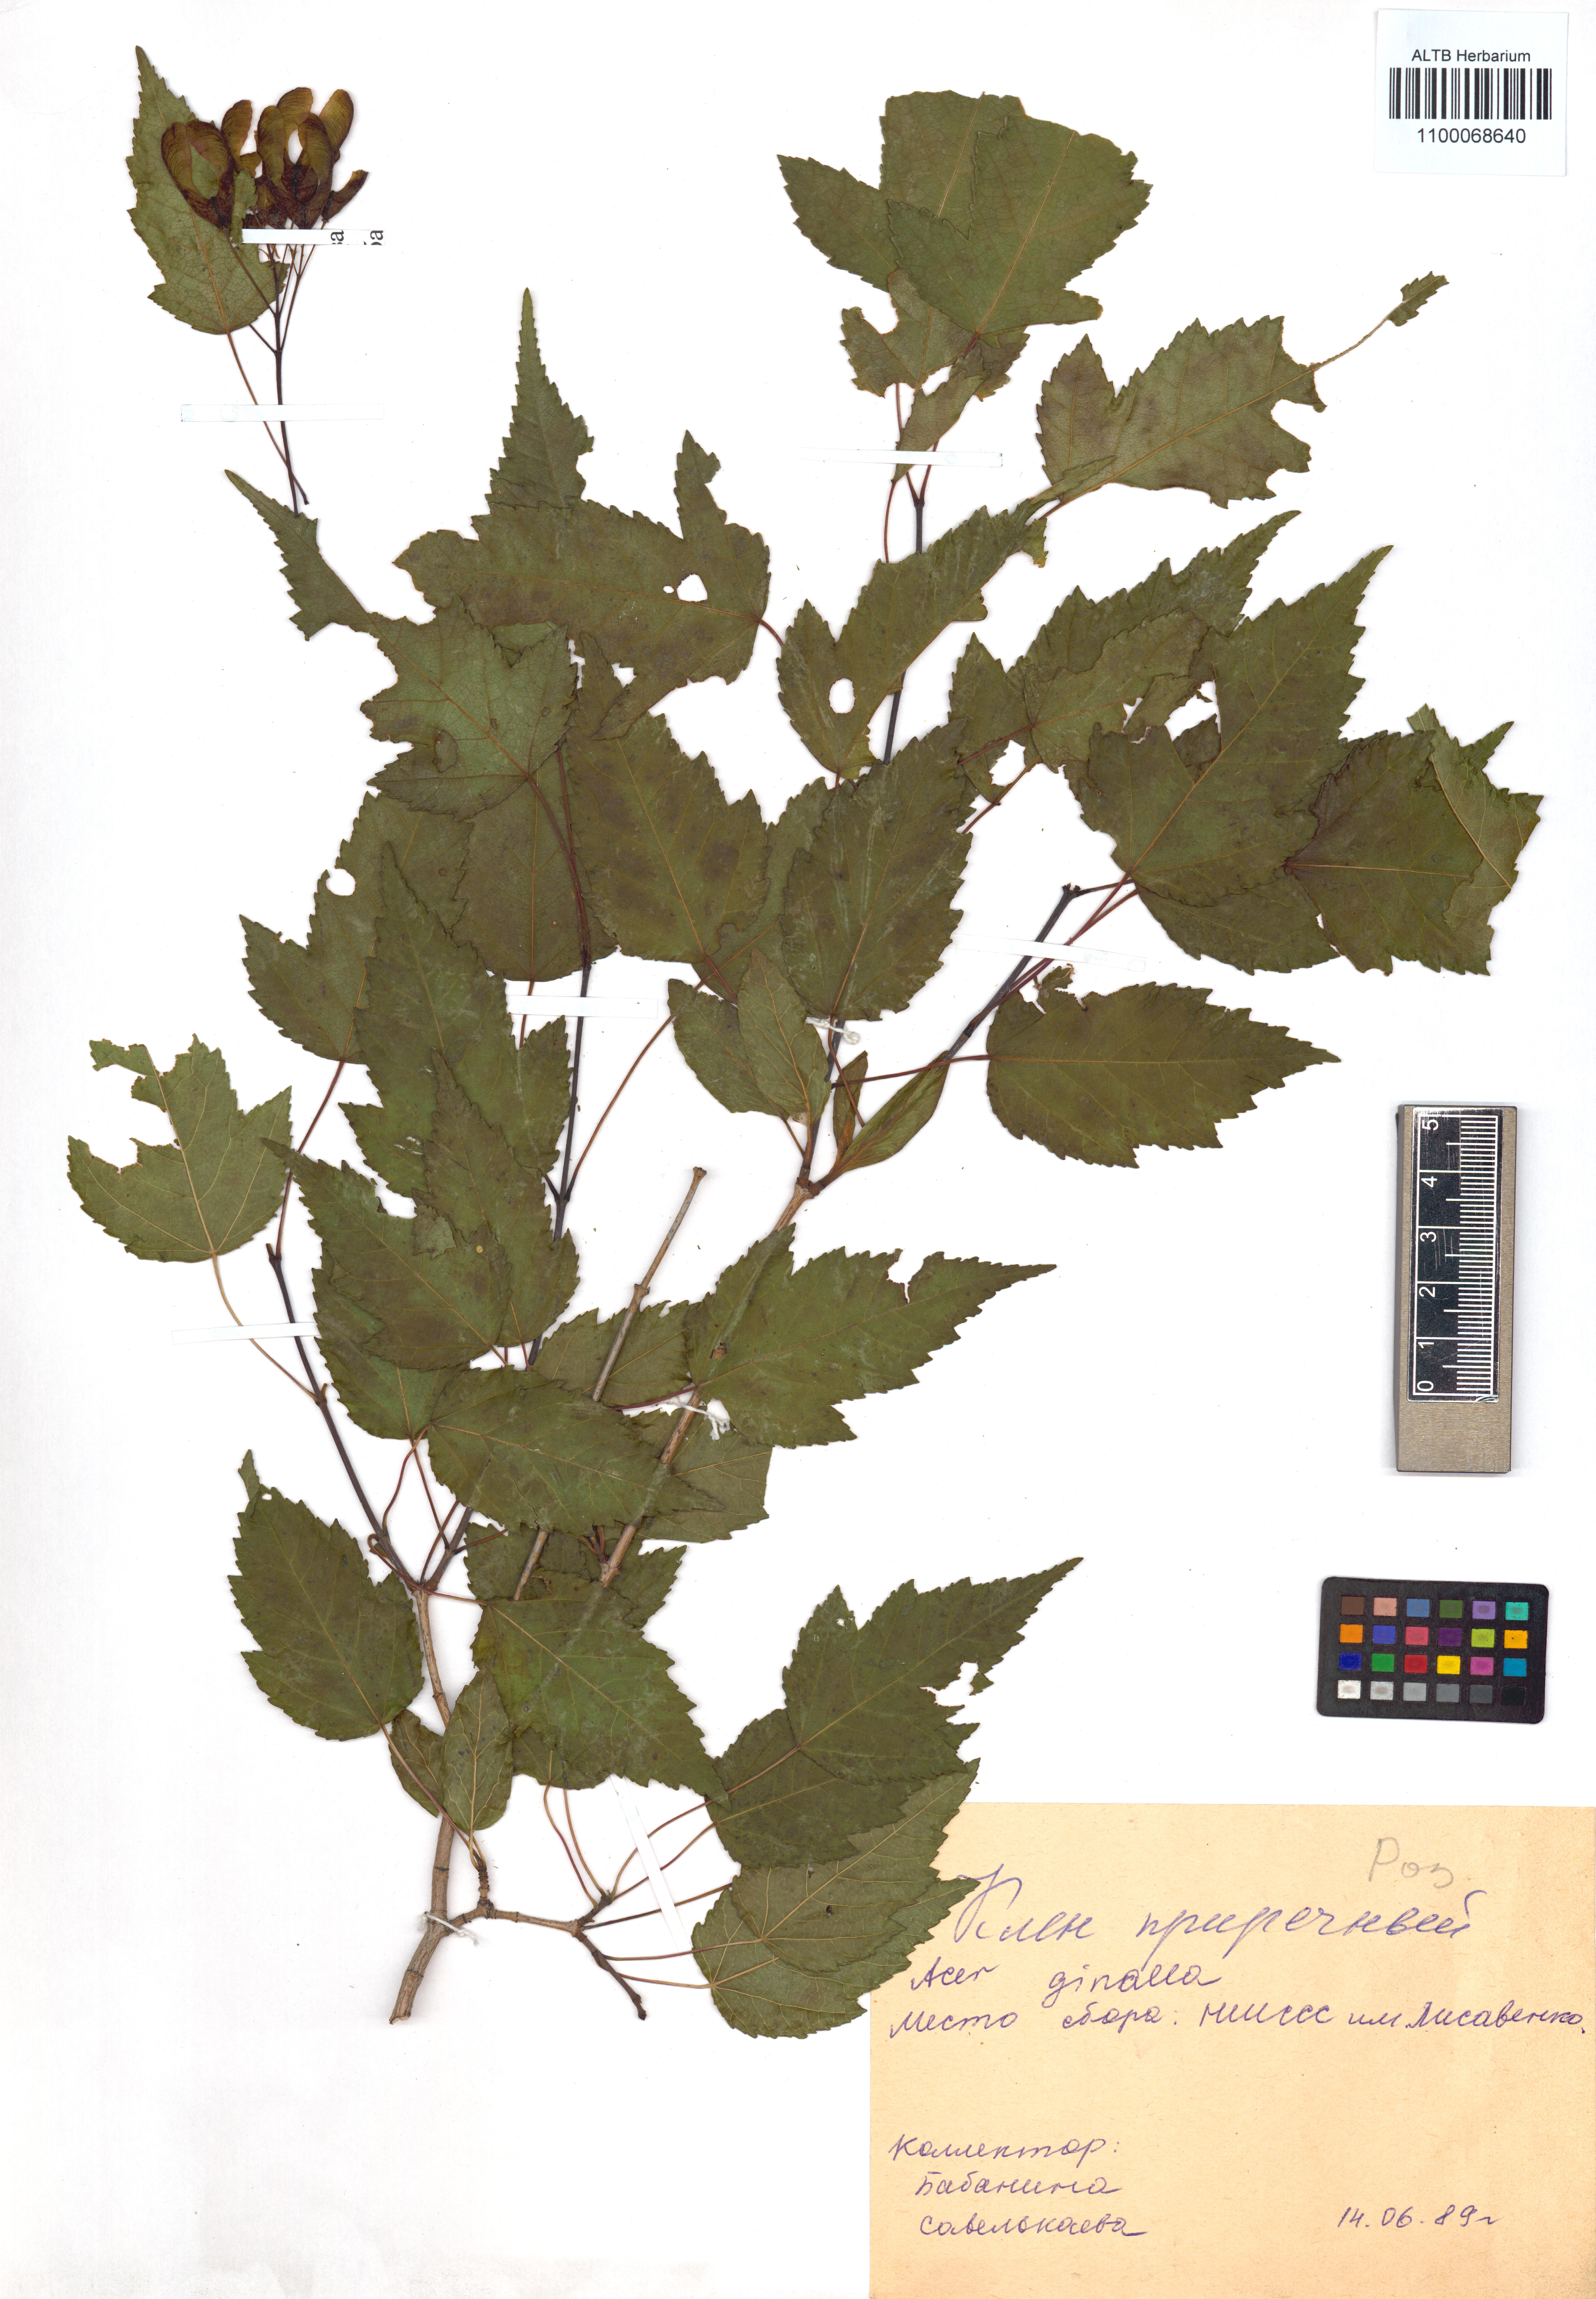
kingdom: Plantae
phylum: Tracheophyta
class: Magnoliopsida
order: Sapindales
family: Sapindaceae
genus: Acer
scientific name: Acer tataricum
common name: Tartar maple
